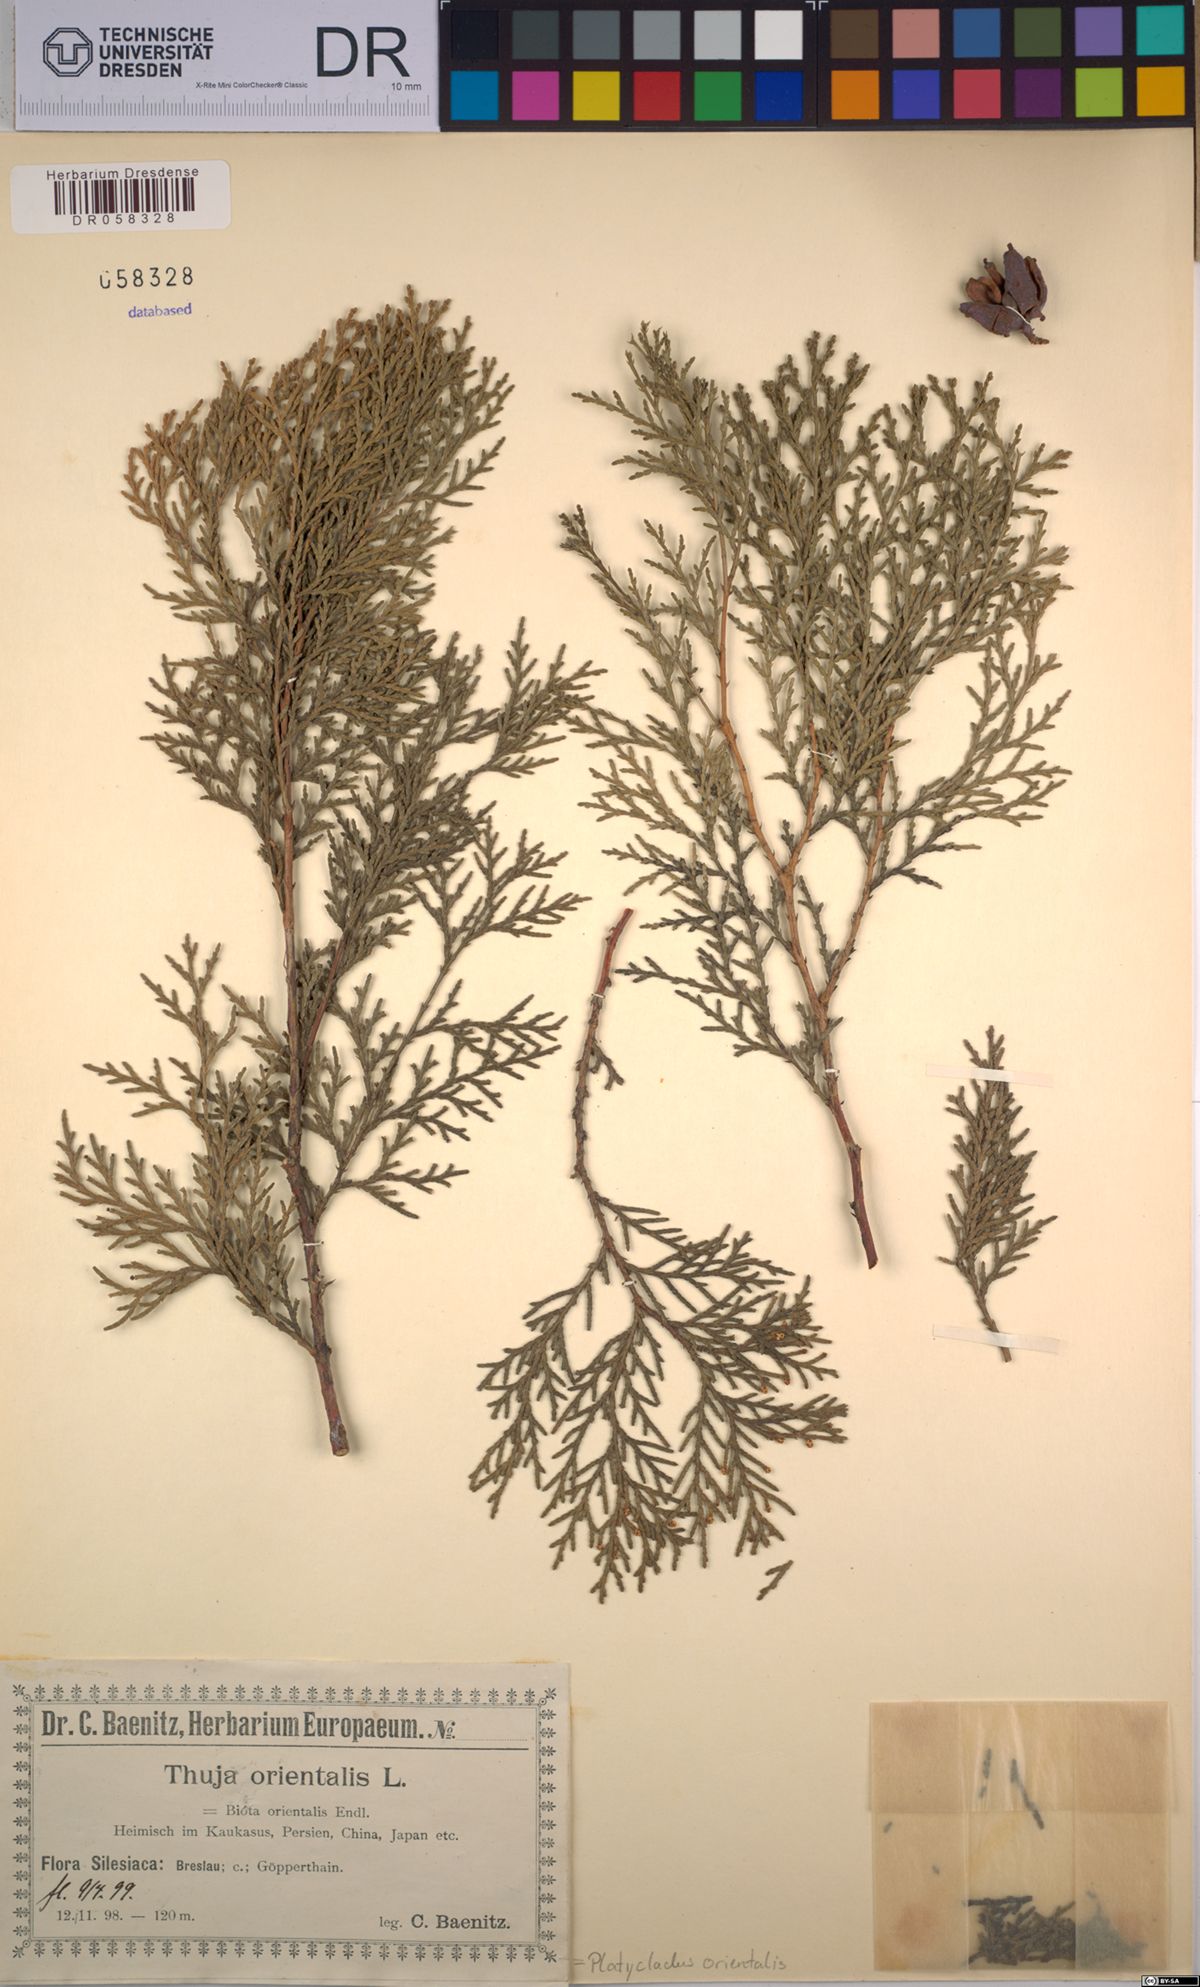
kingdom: Plantae
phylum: Tracheophyta
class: Pinopsida
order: Pinales
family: Cupressaceae
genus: Platycladus
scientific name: Platycladus orientalis
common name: Chinese thuja
